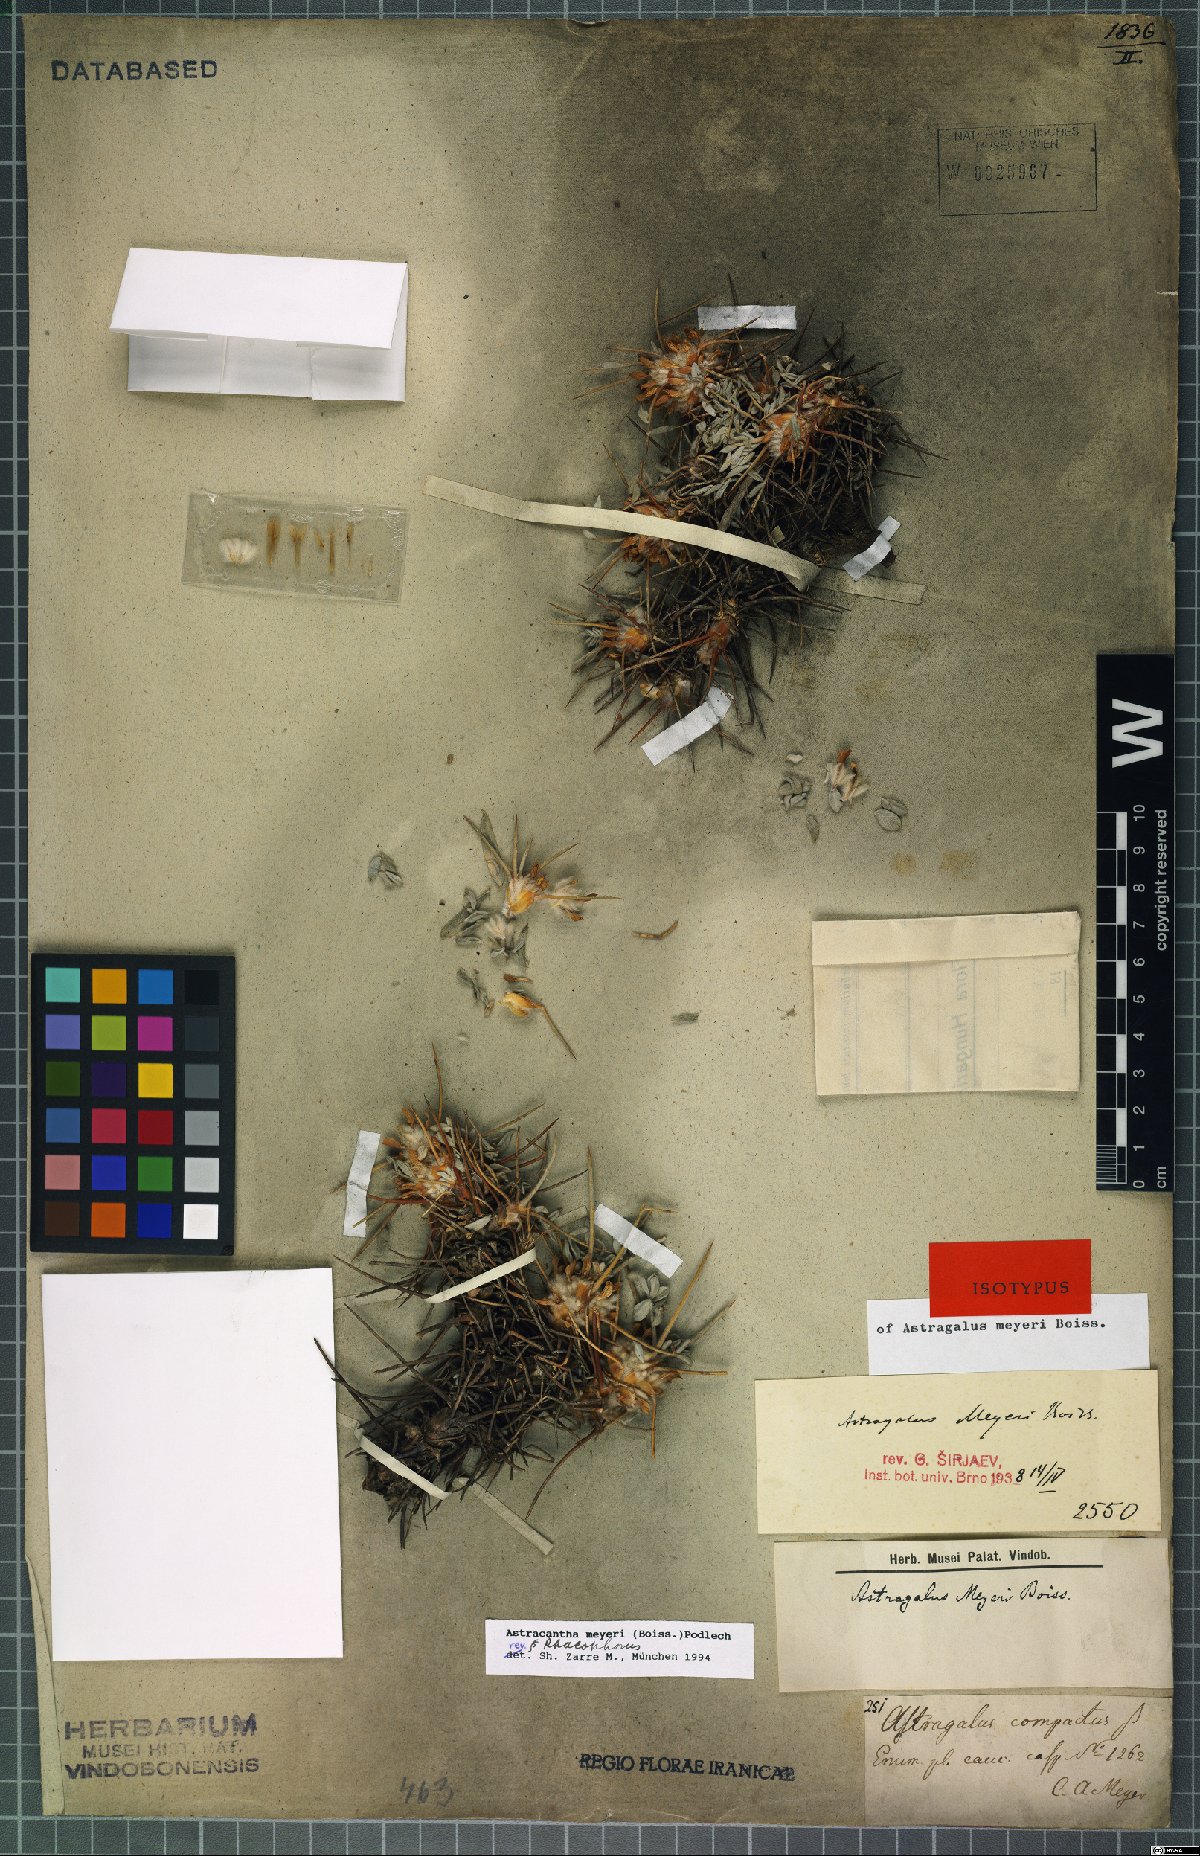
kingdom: Plantae
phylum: Tracheophyta
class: Magnoliopsida
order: Fabales
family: Fabaceae
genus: Astragalus
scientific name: Astragalus meyeri
